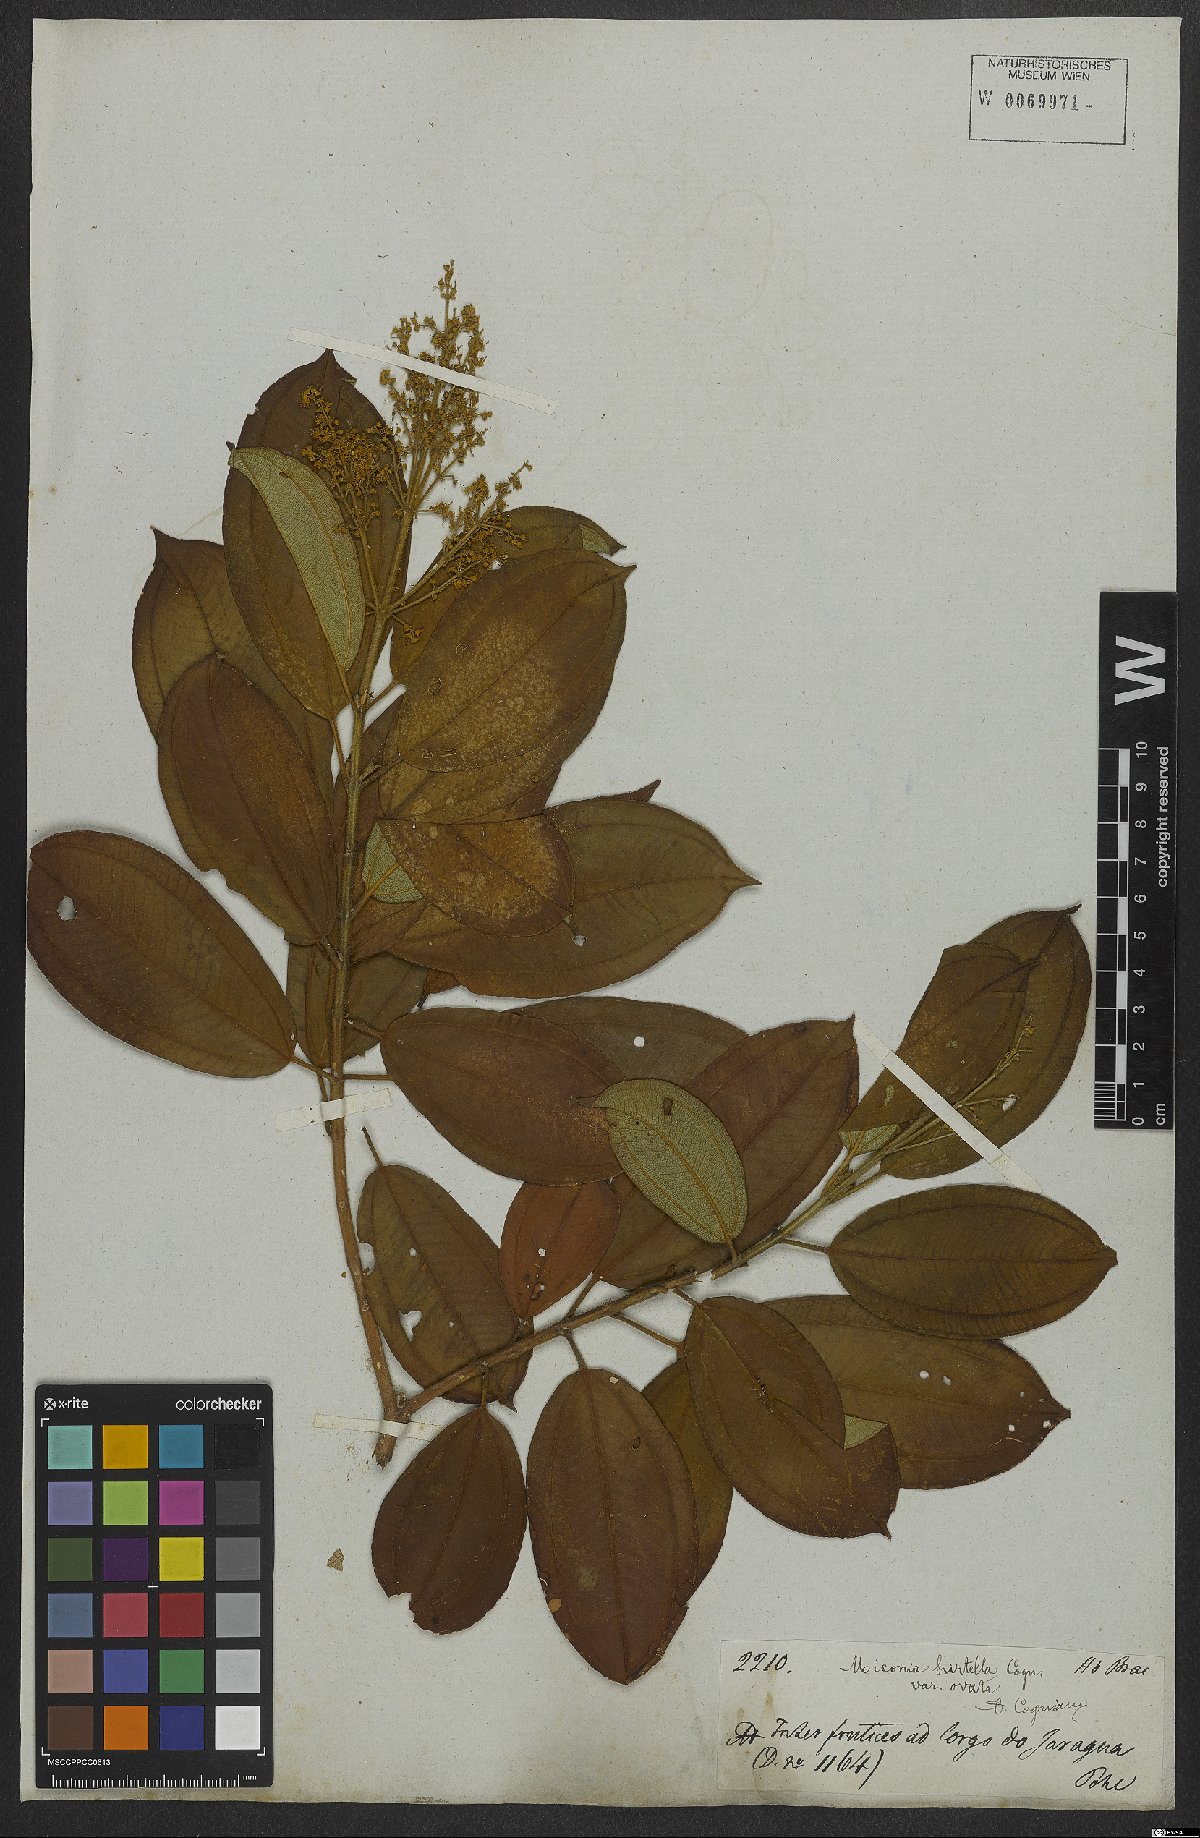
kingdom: Plantae
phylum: Tracheophyta
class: Magnoliopsida
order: Myrtales
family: Melastomataceae
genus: Miconia
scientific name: Miconia hirta
